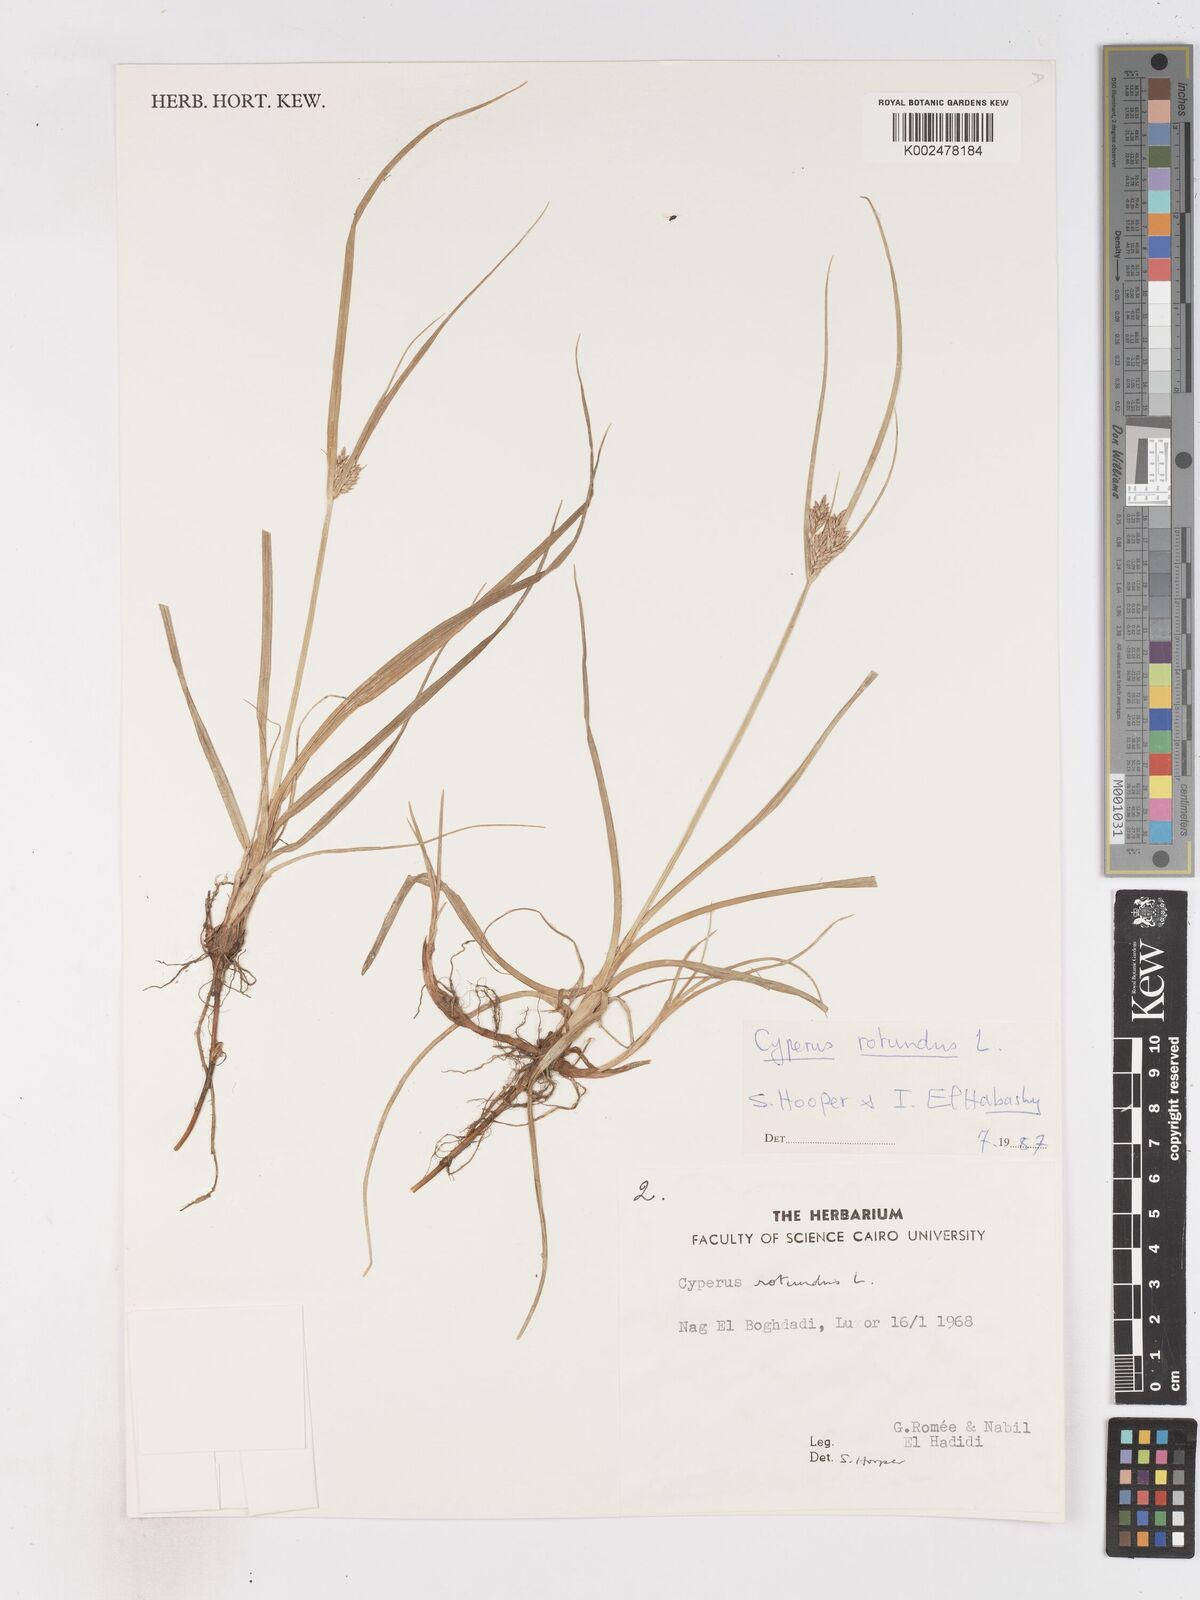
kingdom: Plantae
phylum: Tracheophyta
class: Liliopsida
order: Poales
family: Cyperaceae
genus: Cyperus
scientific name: Cyperus rotundus
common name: Nutgrass
